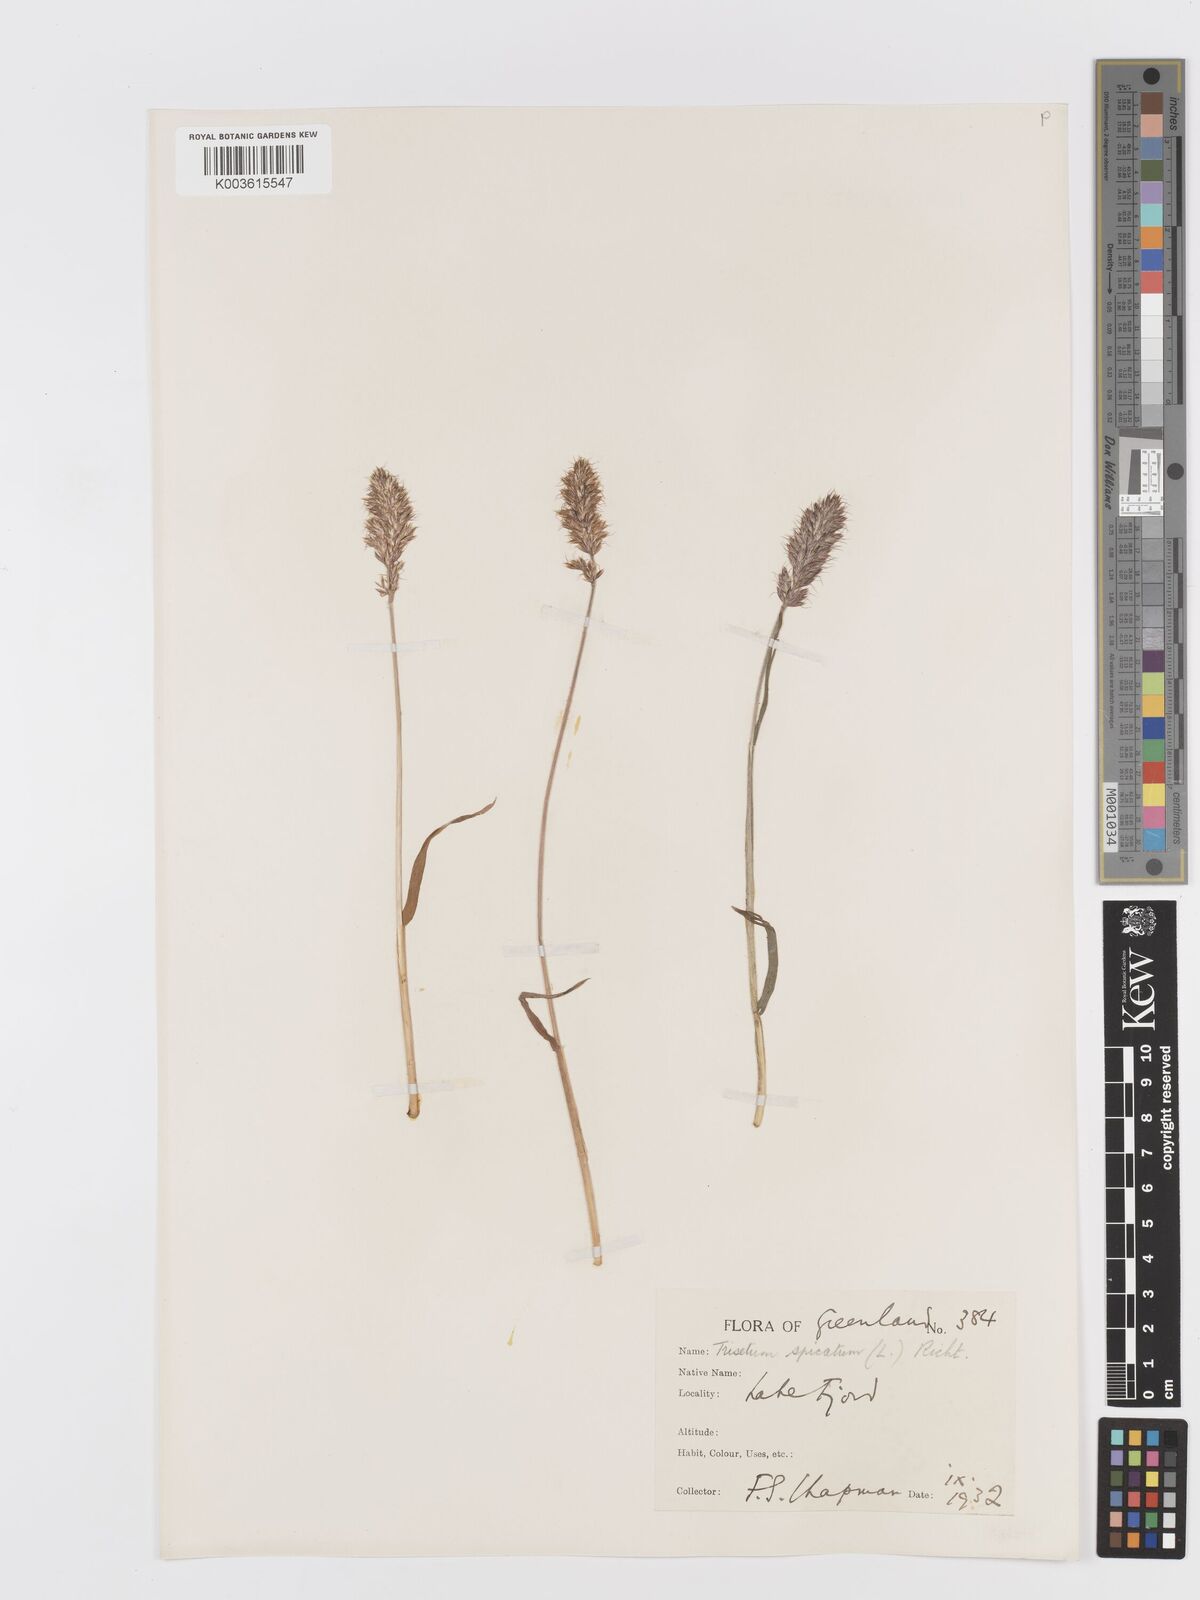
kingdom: Plantae
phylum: Tracheophyta
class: Liliopsida
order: Poales
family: Poaceae
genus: Koeleria
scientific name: Koeleria spicata
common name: Mountain trisetum
